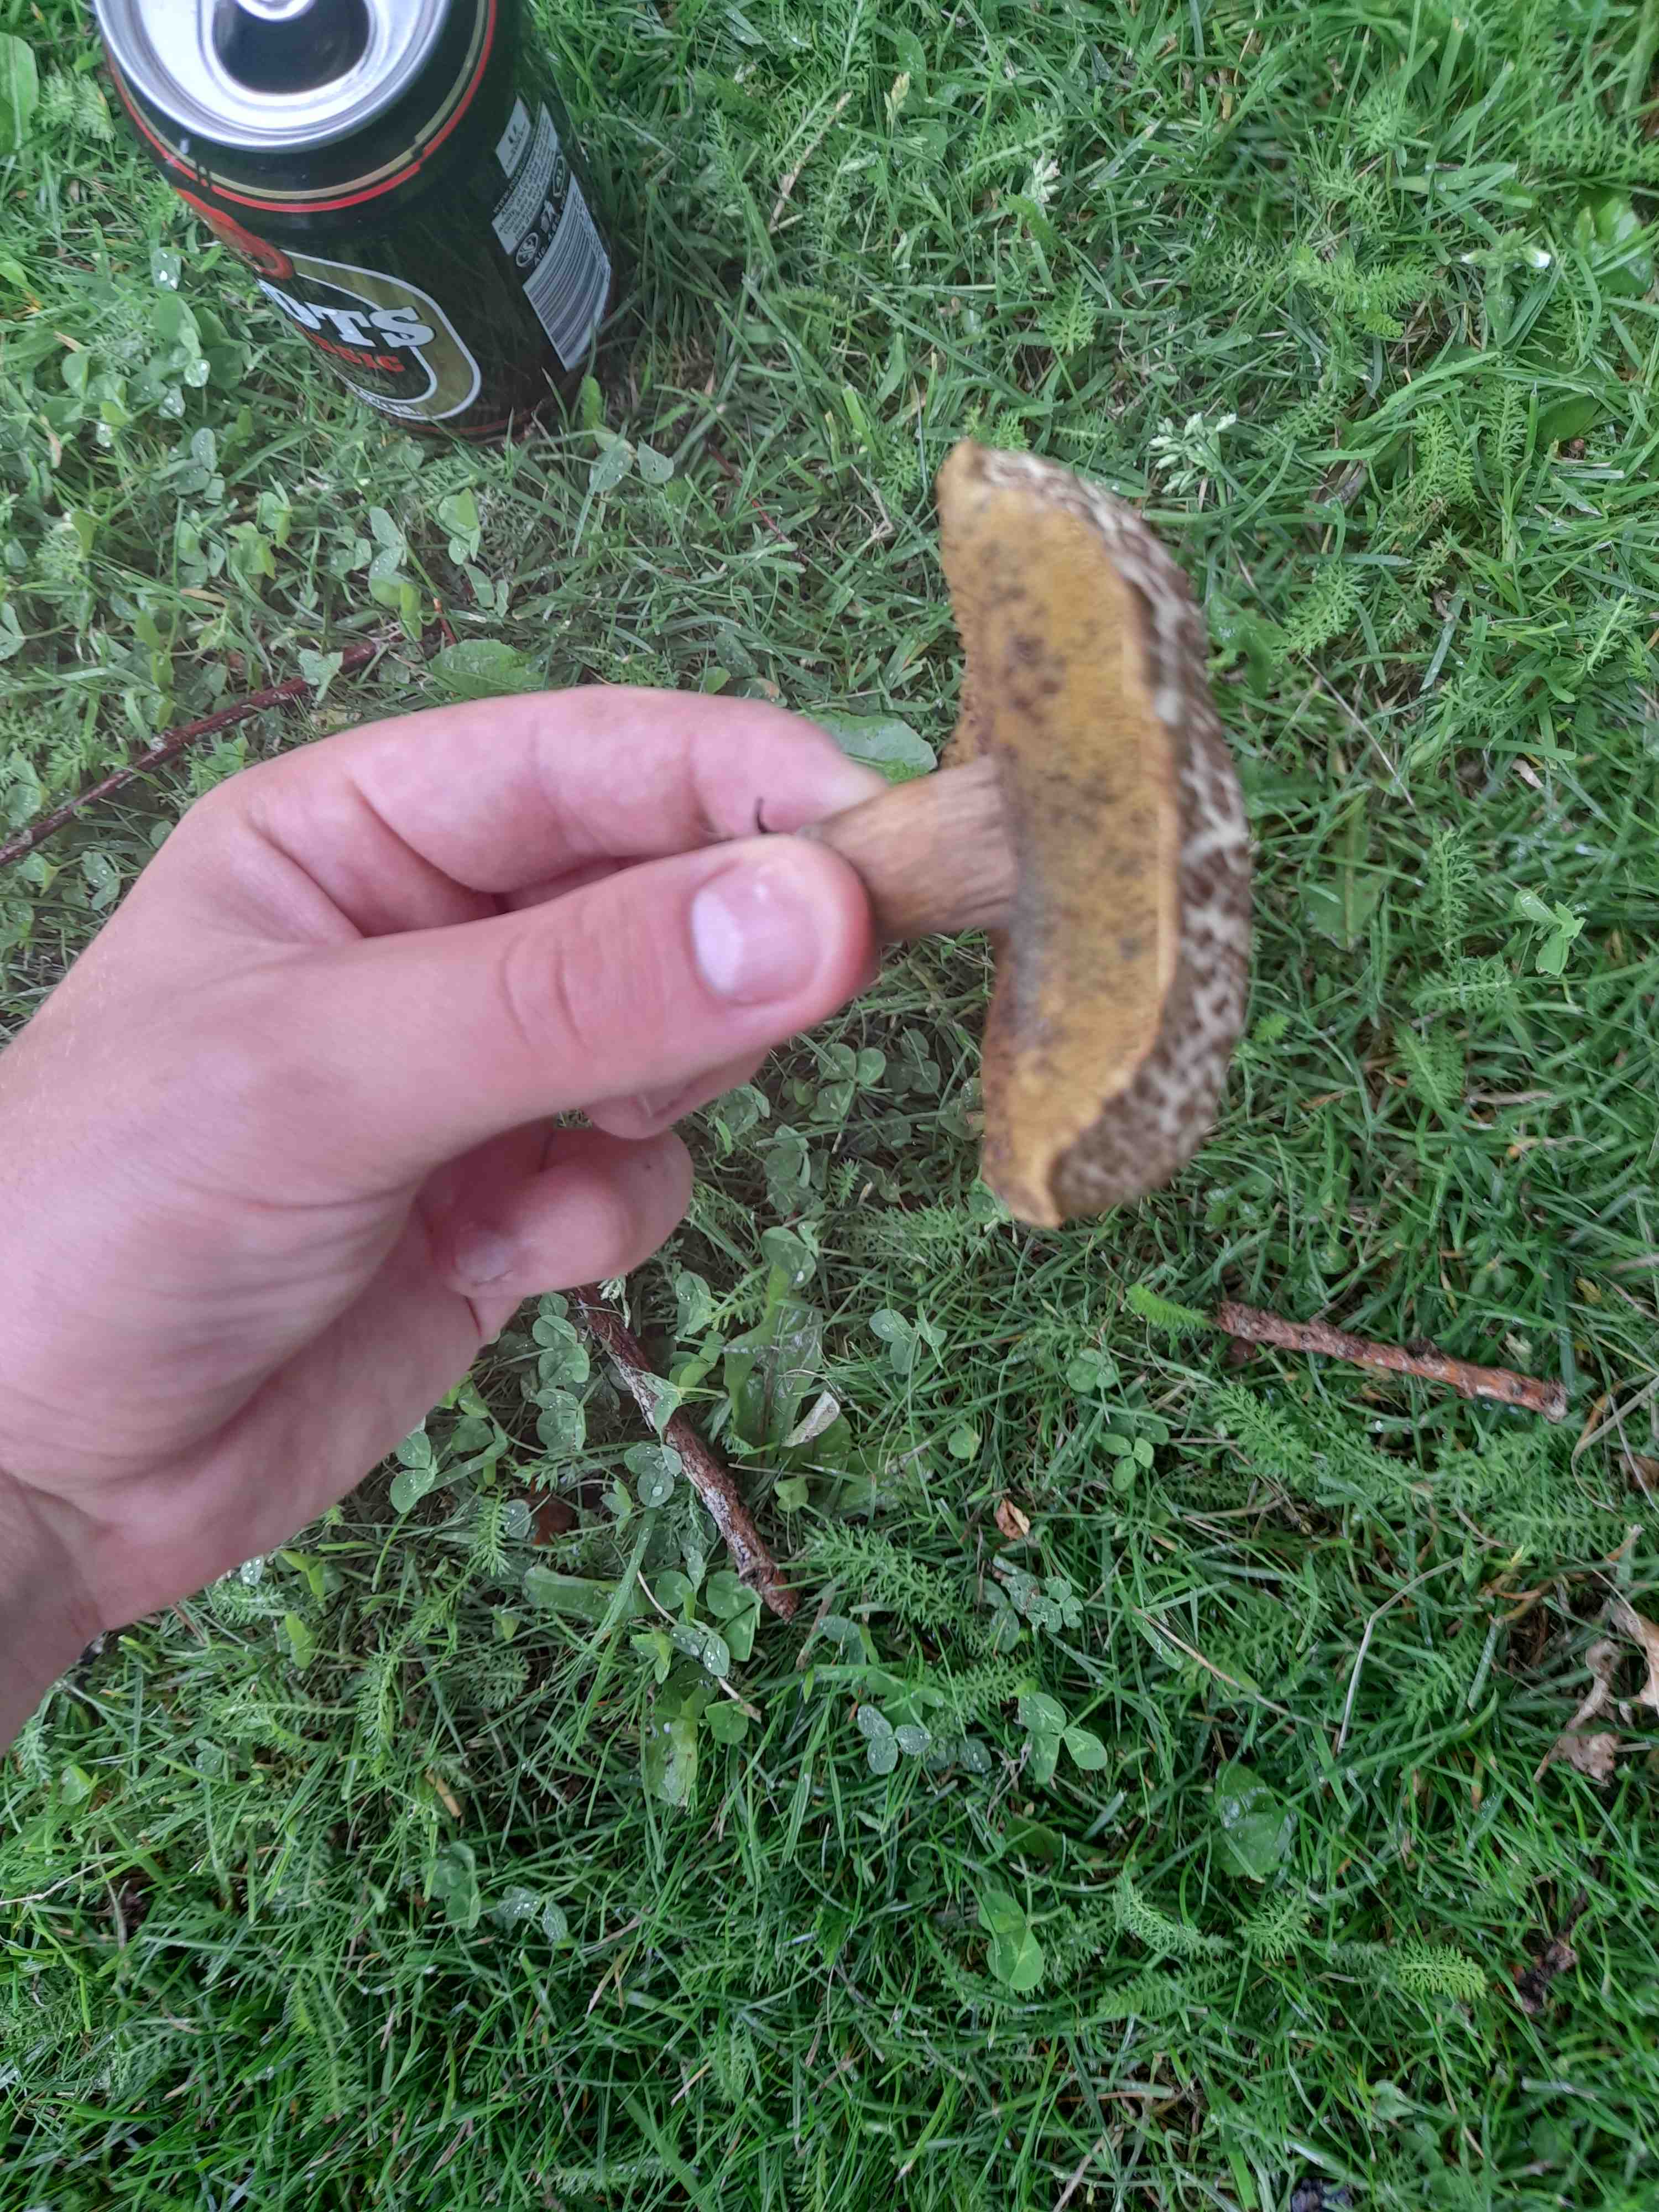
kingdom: Fungi
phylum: Basidiomycota
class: Agaricomycetes
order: Boletales
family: Boletaceae
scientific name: Boletaceae
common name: rørhatfamilien
